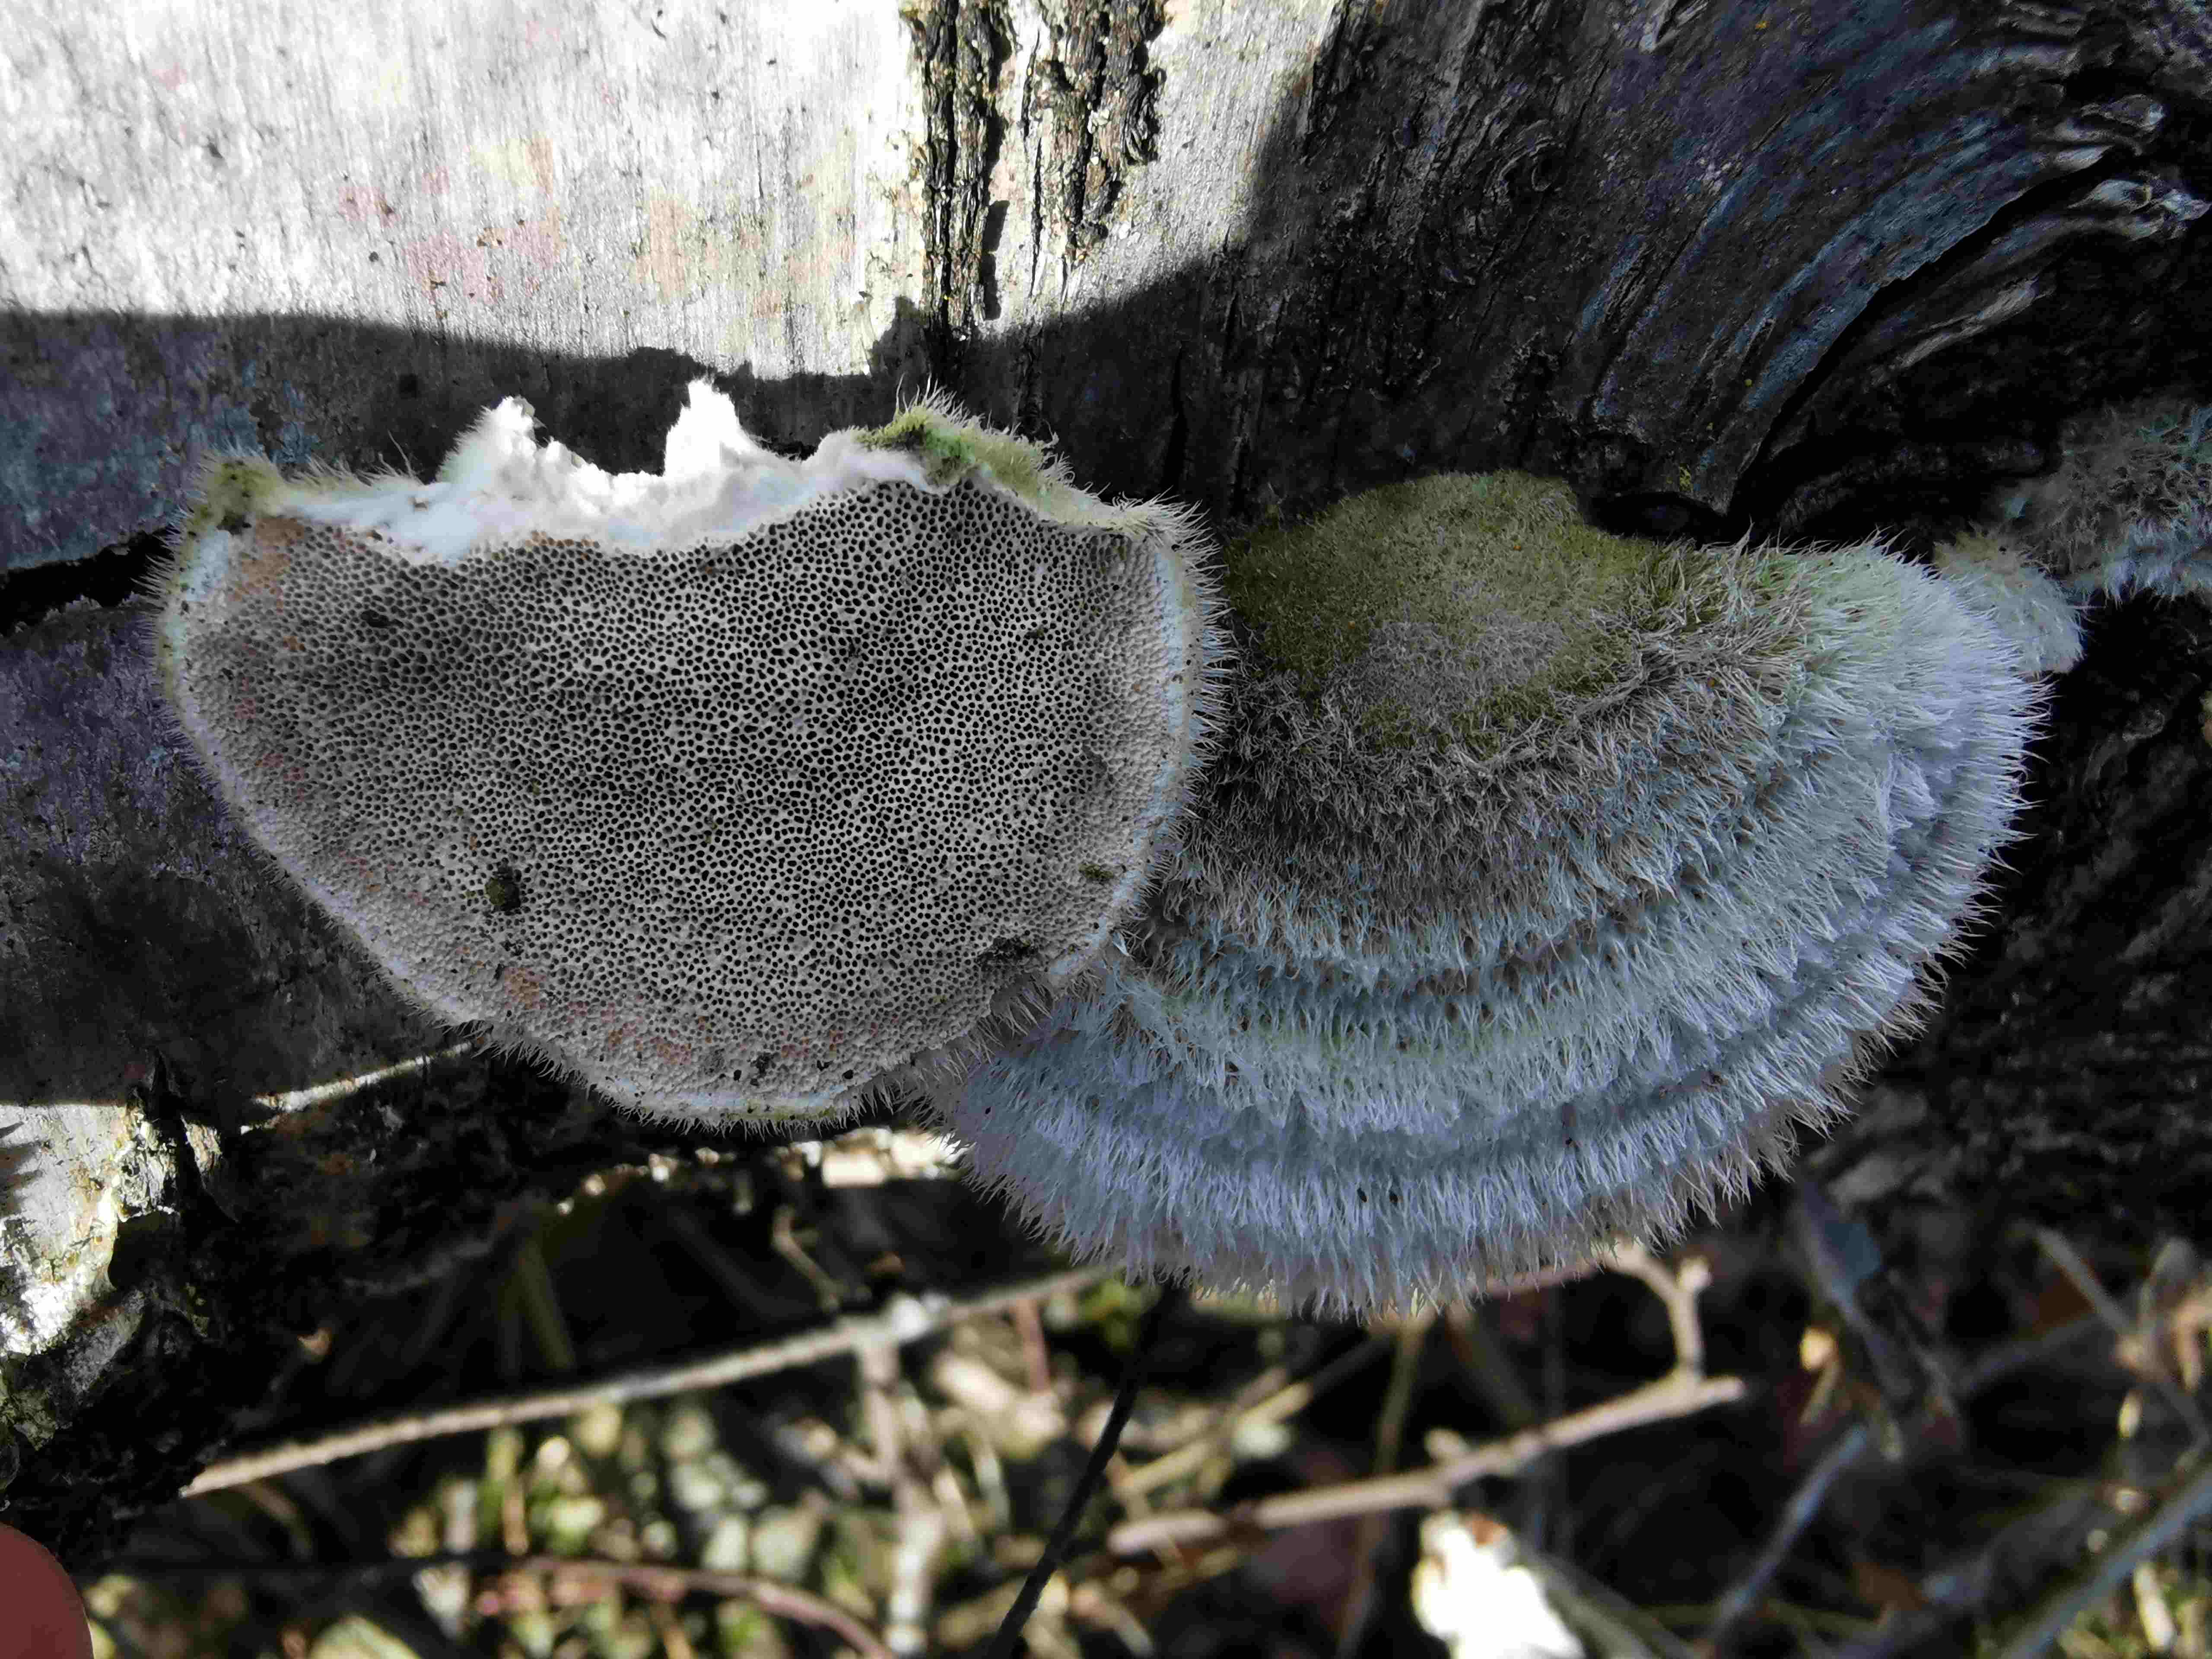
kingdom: Fungi
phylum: Basidiomycota
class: Agaricomycetes
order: Polyporales
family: Polyporaceae
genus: Trametes
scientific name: Trametes hirsuta
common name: håret læderporesvamp
